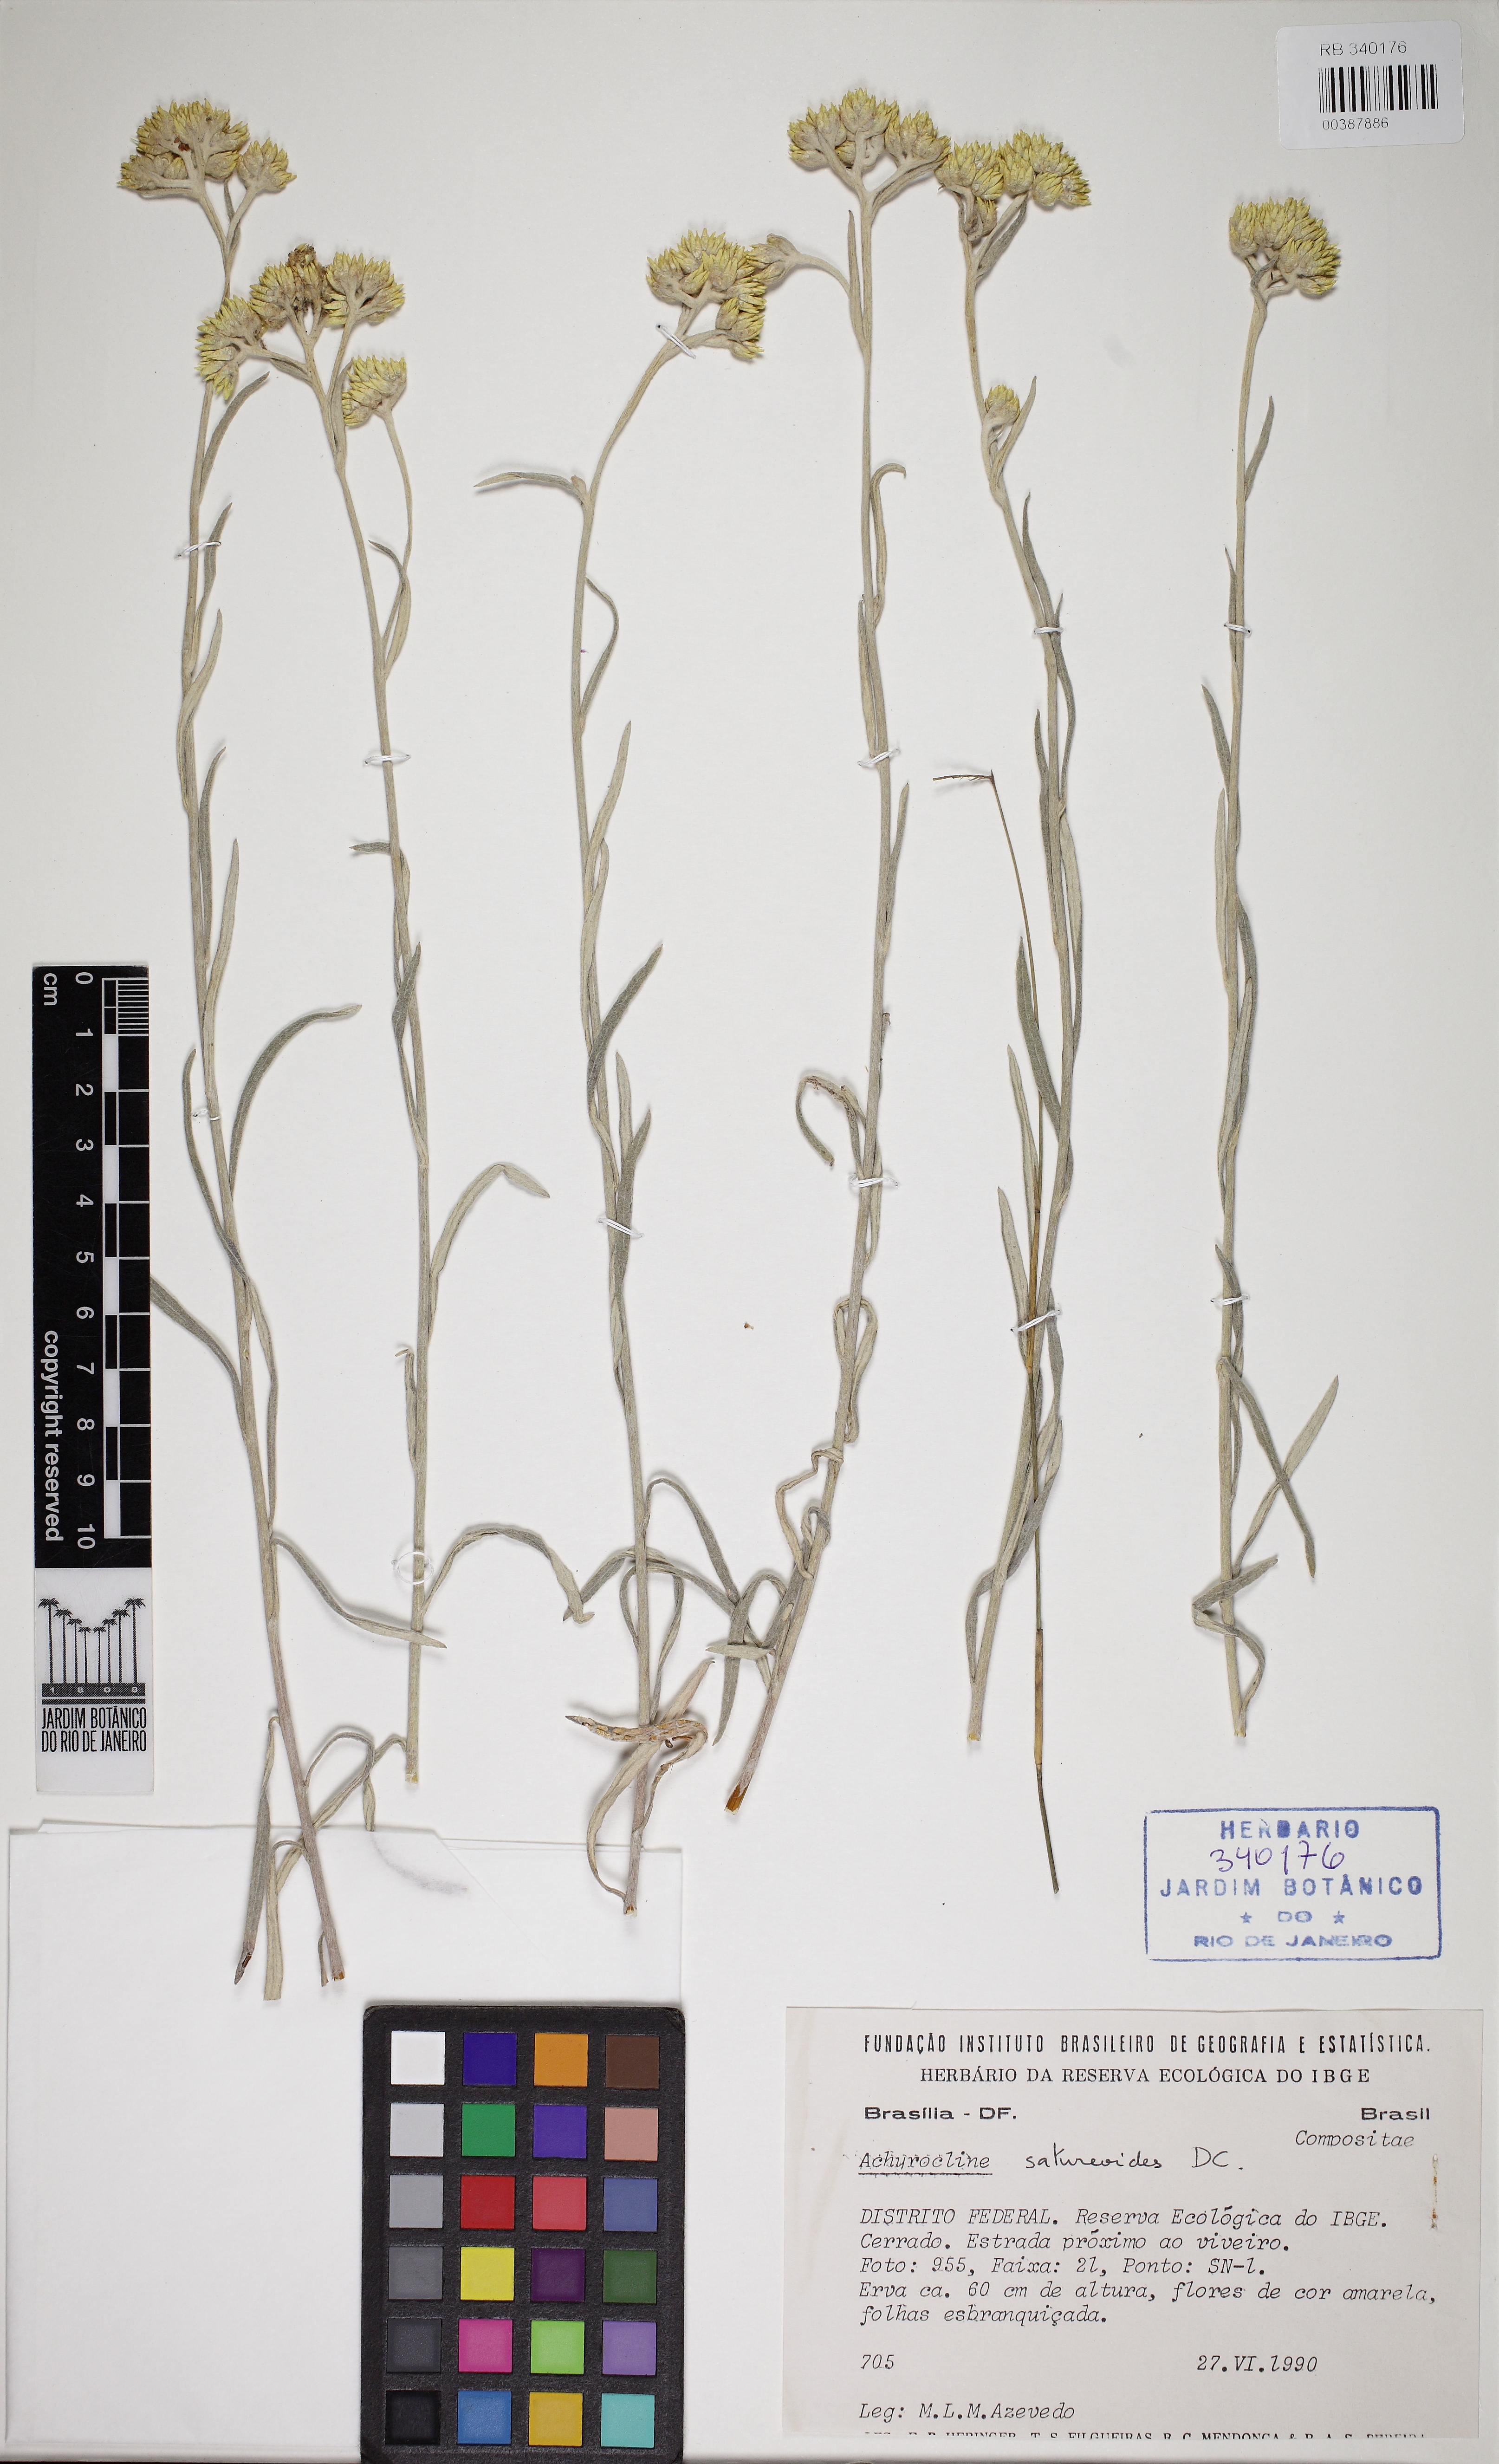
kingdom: Plantae
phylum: Tracheophyta
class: Magnoliopsida
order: Asterales
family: Asteraceae
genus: Achyrocline
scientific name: Achyrocline satureioides
